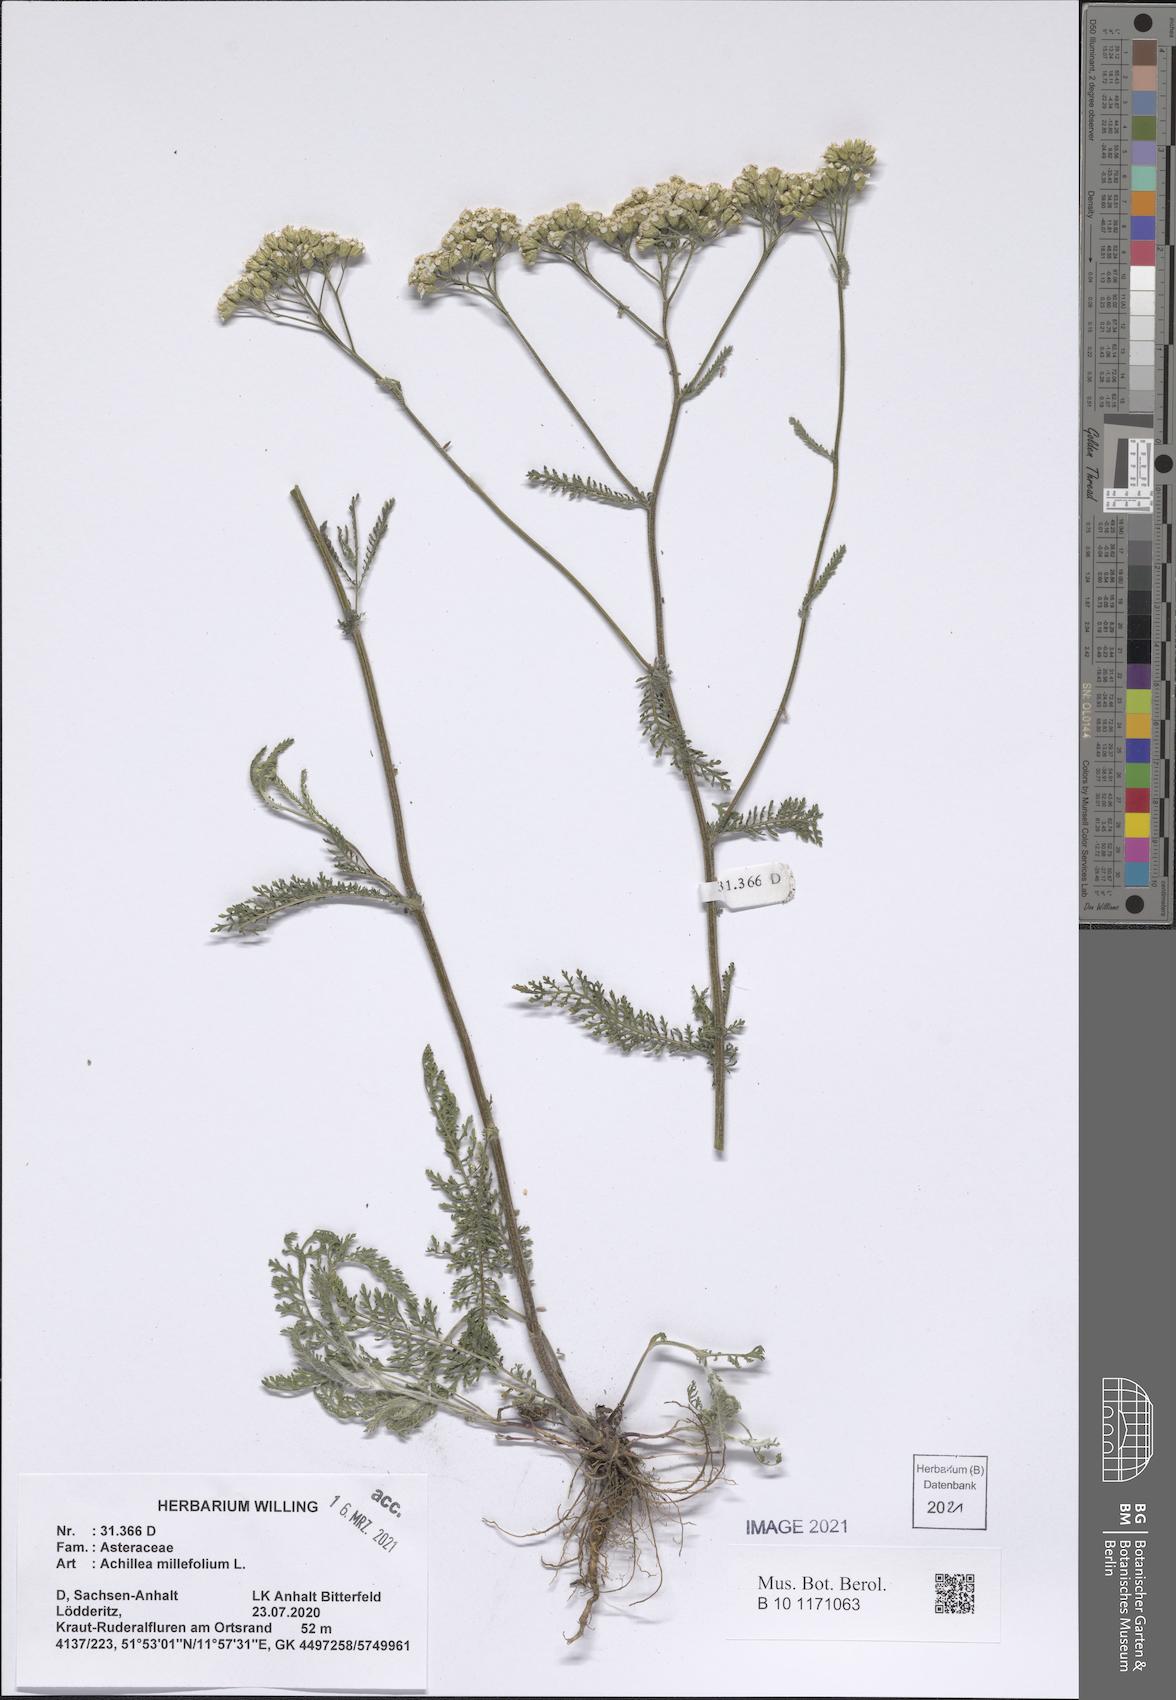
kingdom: Plantae
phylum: Tracheophyta
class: Magnoliopsida
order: Asterales
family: Asteraceae
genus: Achillea
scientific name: Achillea millefolium
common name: Yarrow
